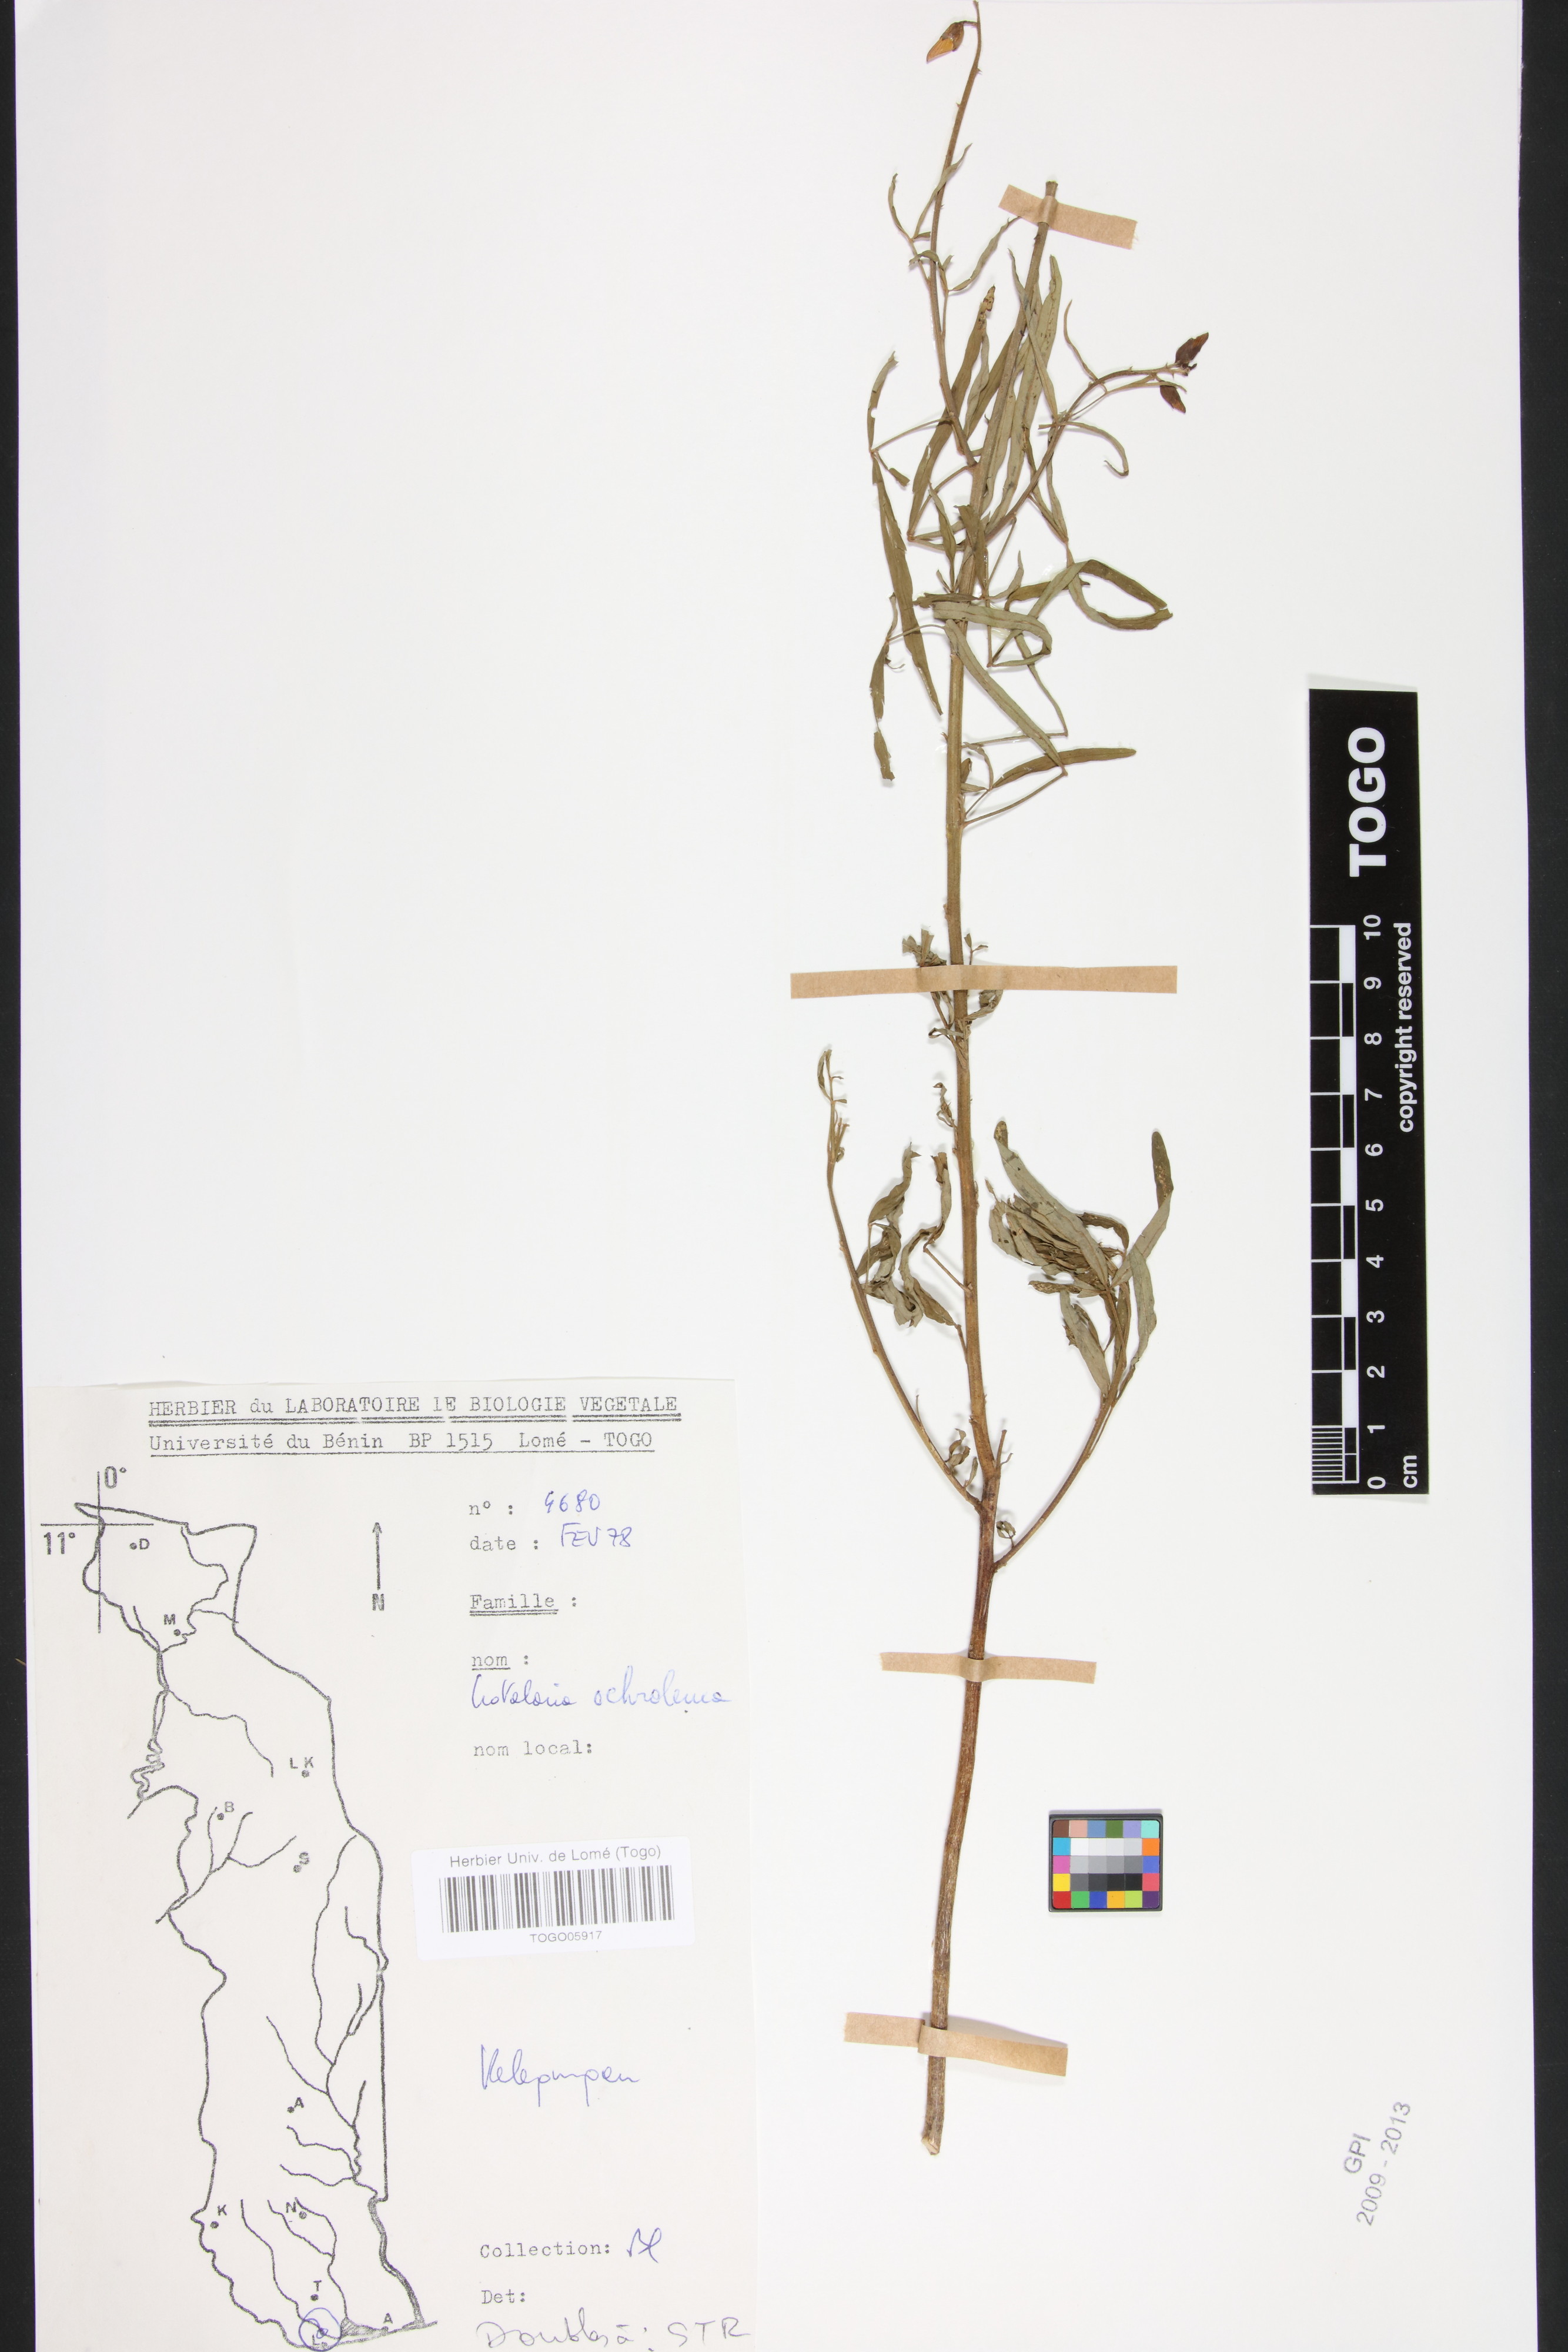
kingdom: Plantae
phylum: Tracheophyta
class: Magnoliopsida
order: Fabales
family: Fabaceae
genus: Crotalaria
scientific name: Crotalaria ochroleuca
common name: Slender leaf rattlebox
